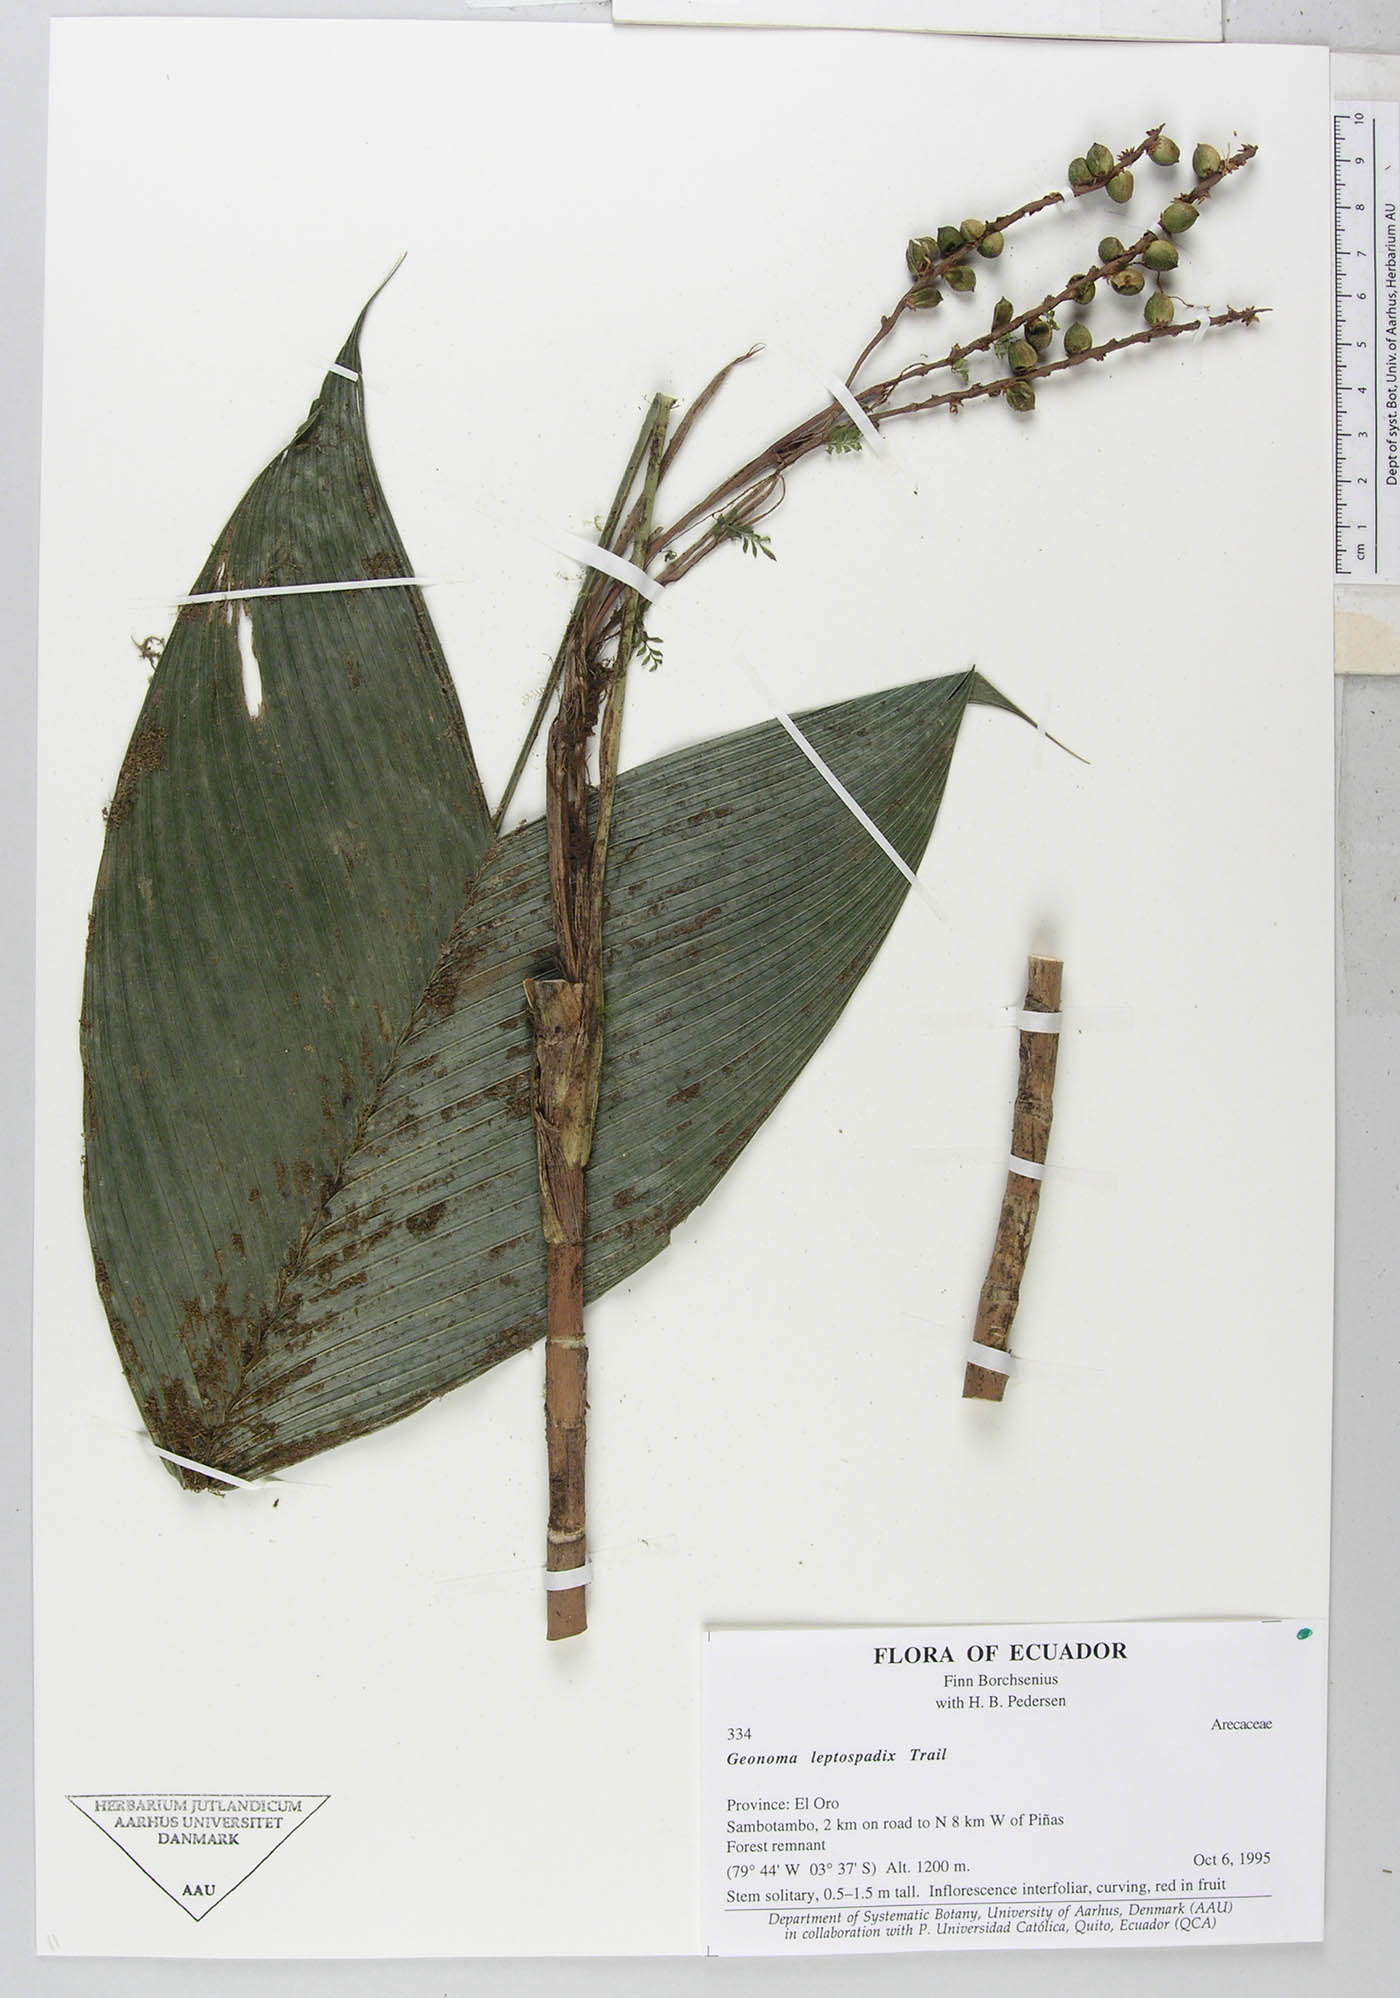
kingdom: Plantae
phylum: Tracheophyta
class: Liliopsida
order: Arecales
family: Arecaceae
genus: Geonoma
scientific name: Geonoma lanata
